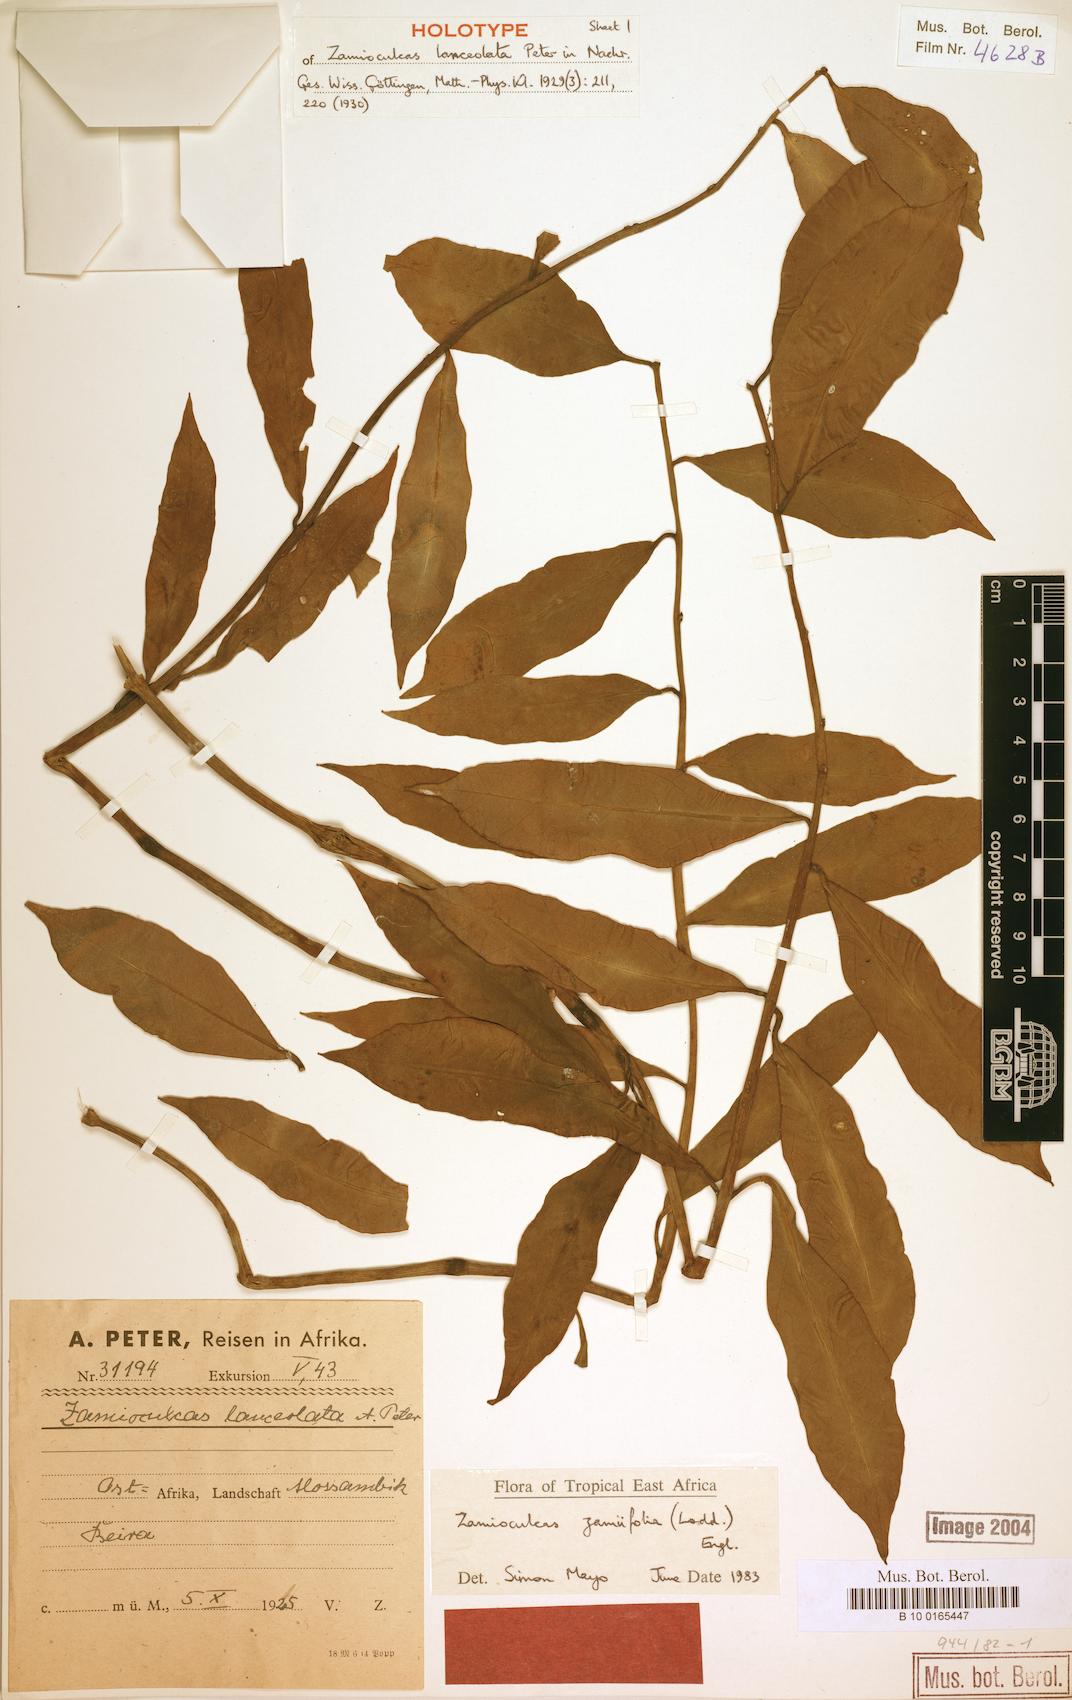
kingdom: Plantae
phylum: Tracheophyta
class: Liliopsida
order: Alismatales
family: Araceae
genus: Zamioculcas
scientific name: Zamioculcas zamiifolia
